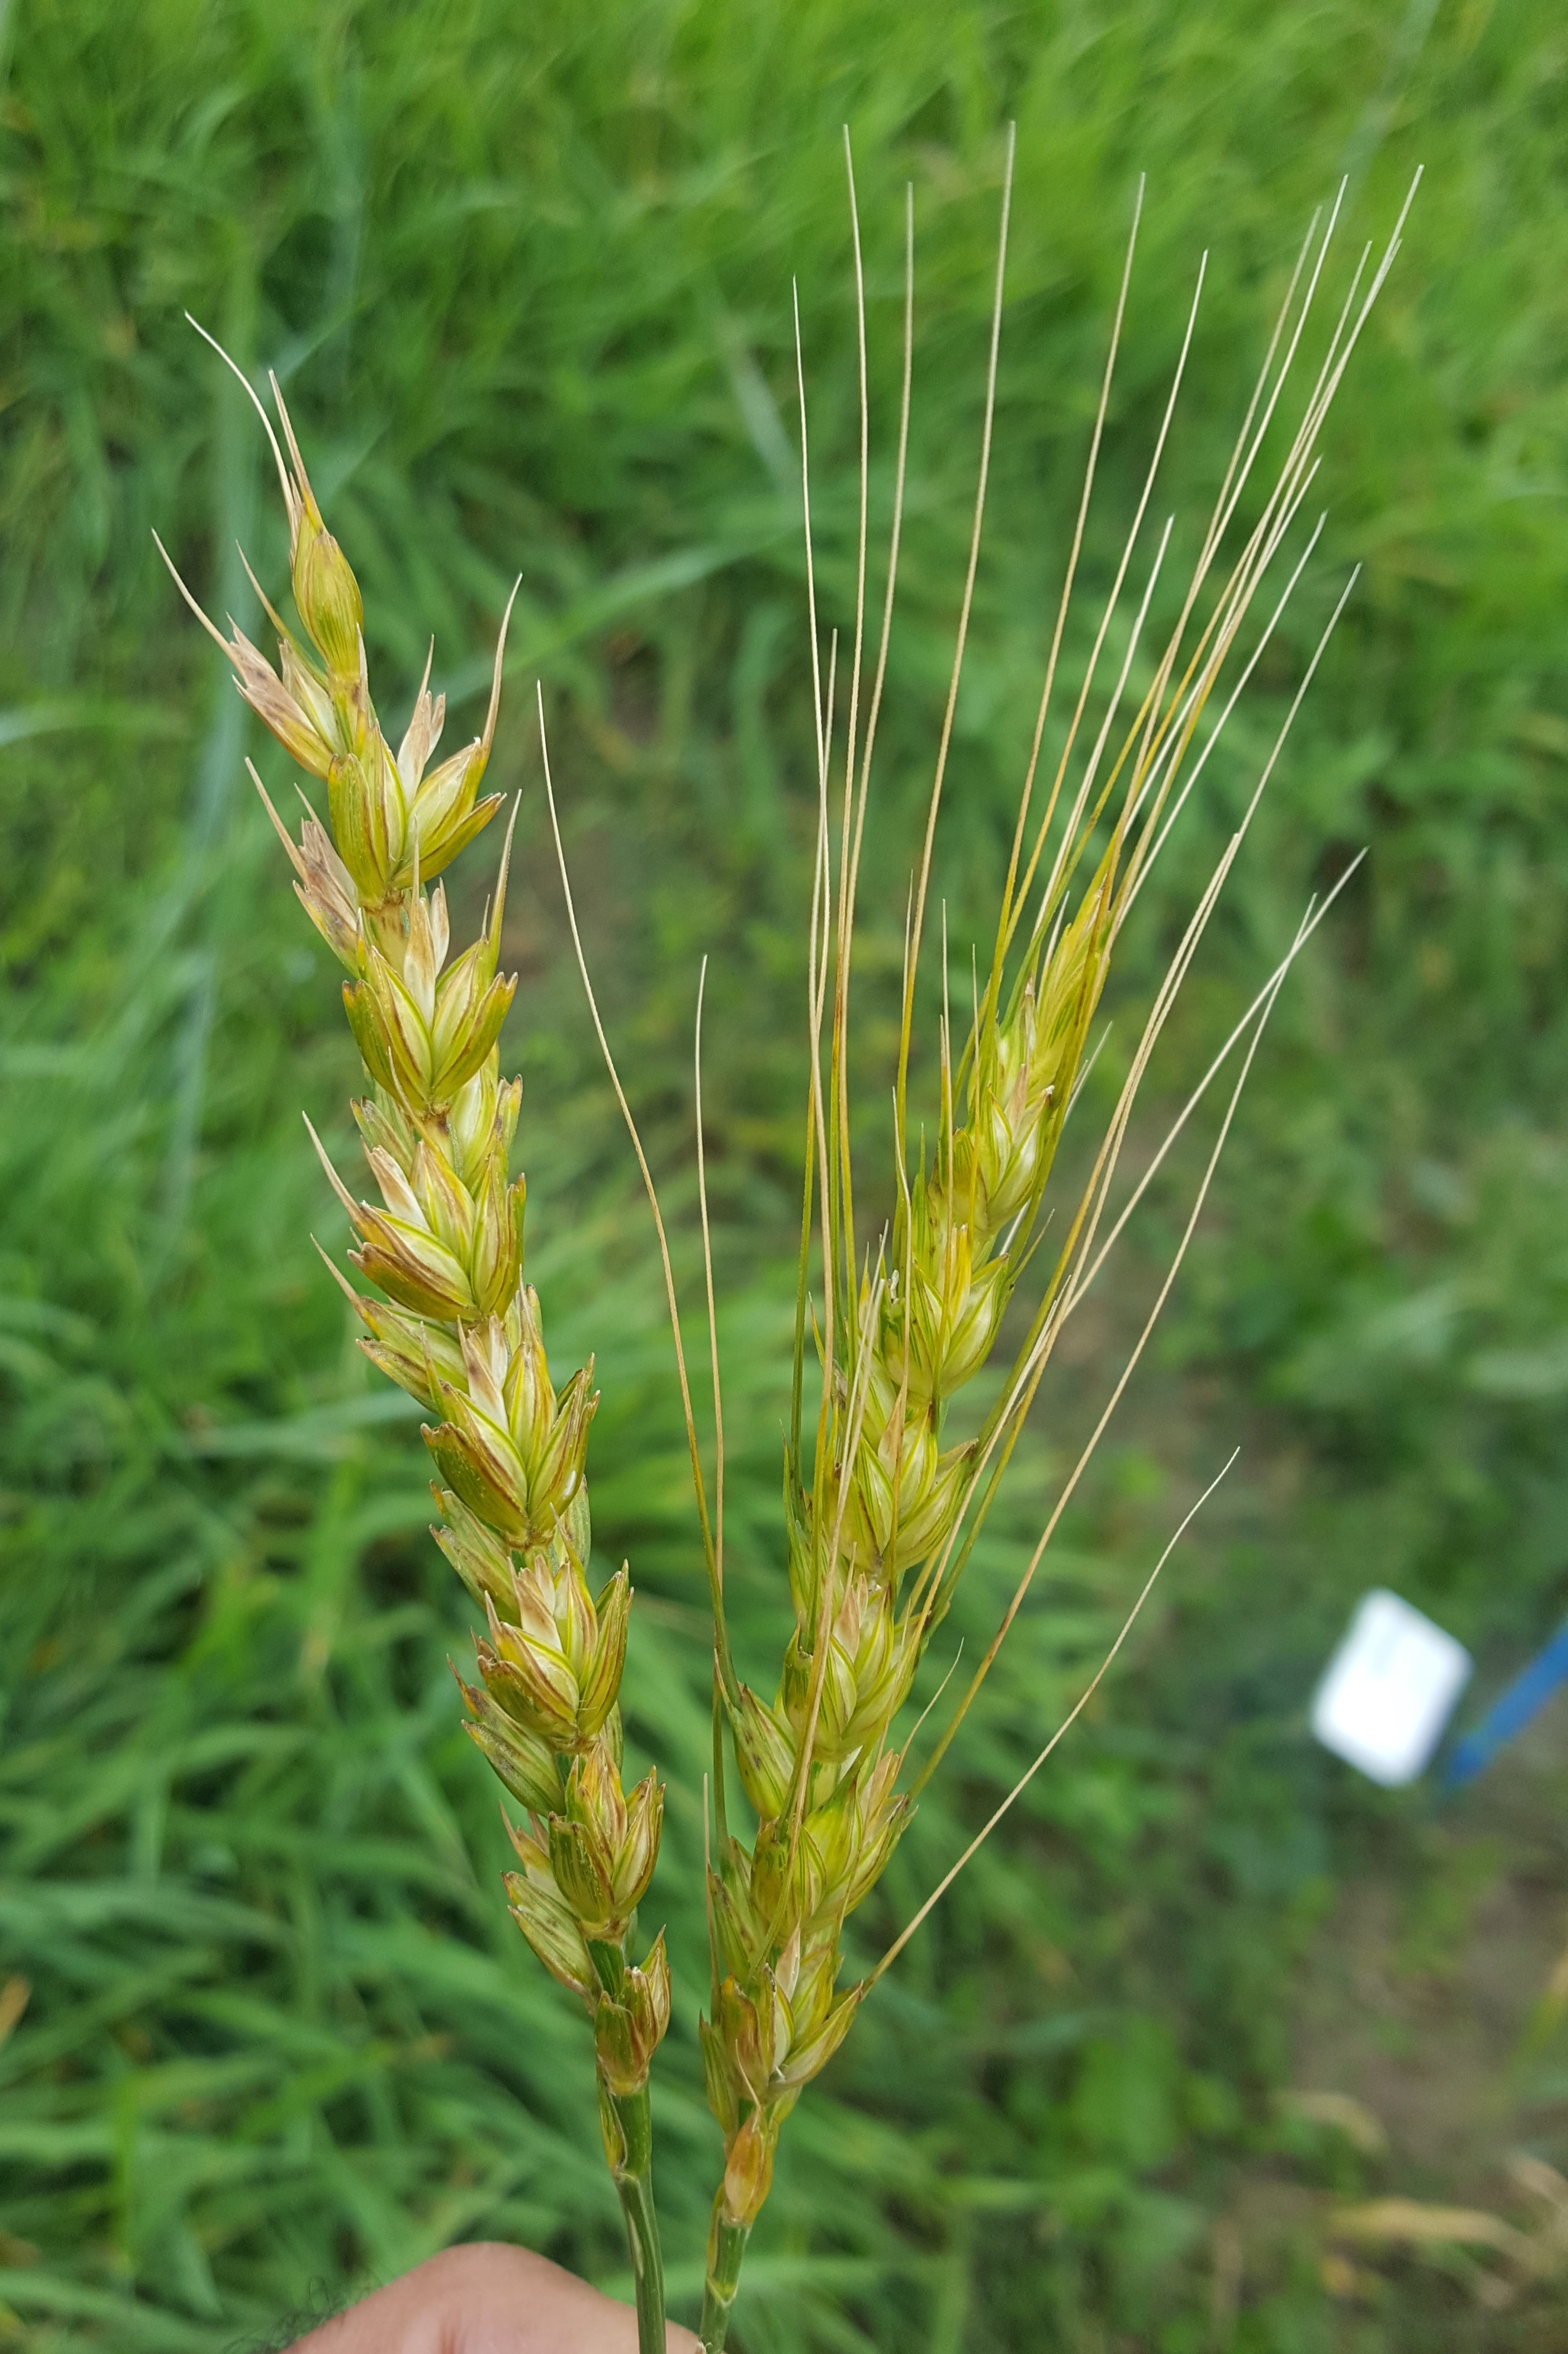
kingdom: Plantae
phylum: Tracheophyta
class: Liliopsida
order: Poales
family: Poaceae
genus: Triticum
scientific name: Triticum aestivum
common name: Common wheat
